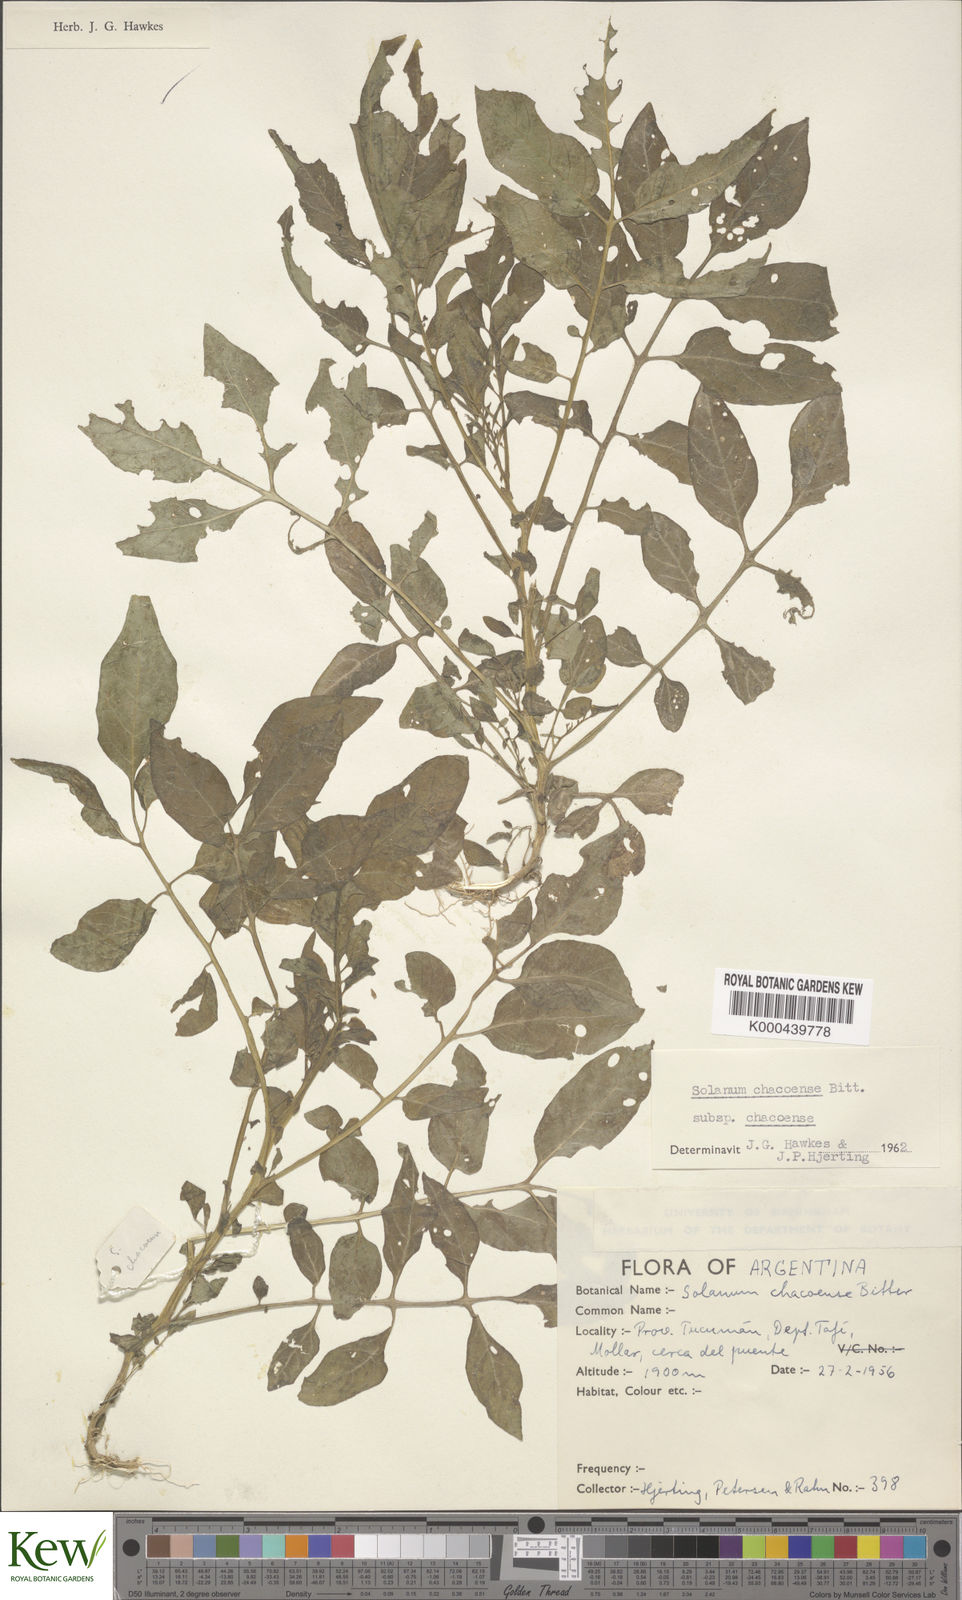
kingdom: Plantae
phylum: Tracheophyta
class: Magnoliopsida
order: Solanales
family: Solanaceae
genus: Solanum
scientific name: Solanum chacoense
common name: Chaco potato
